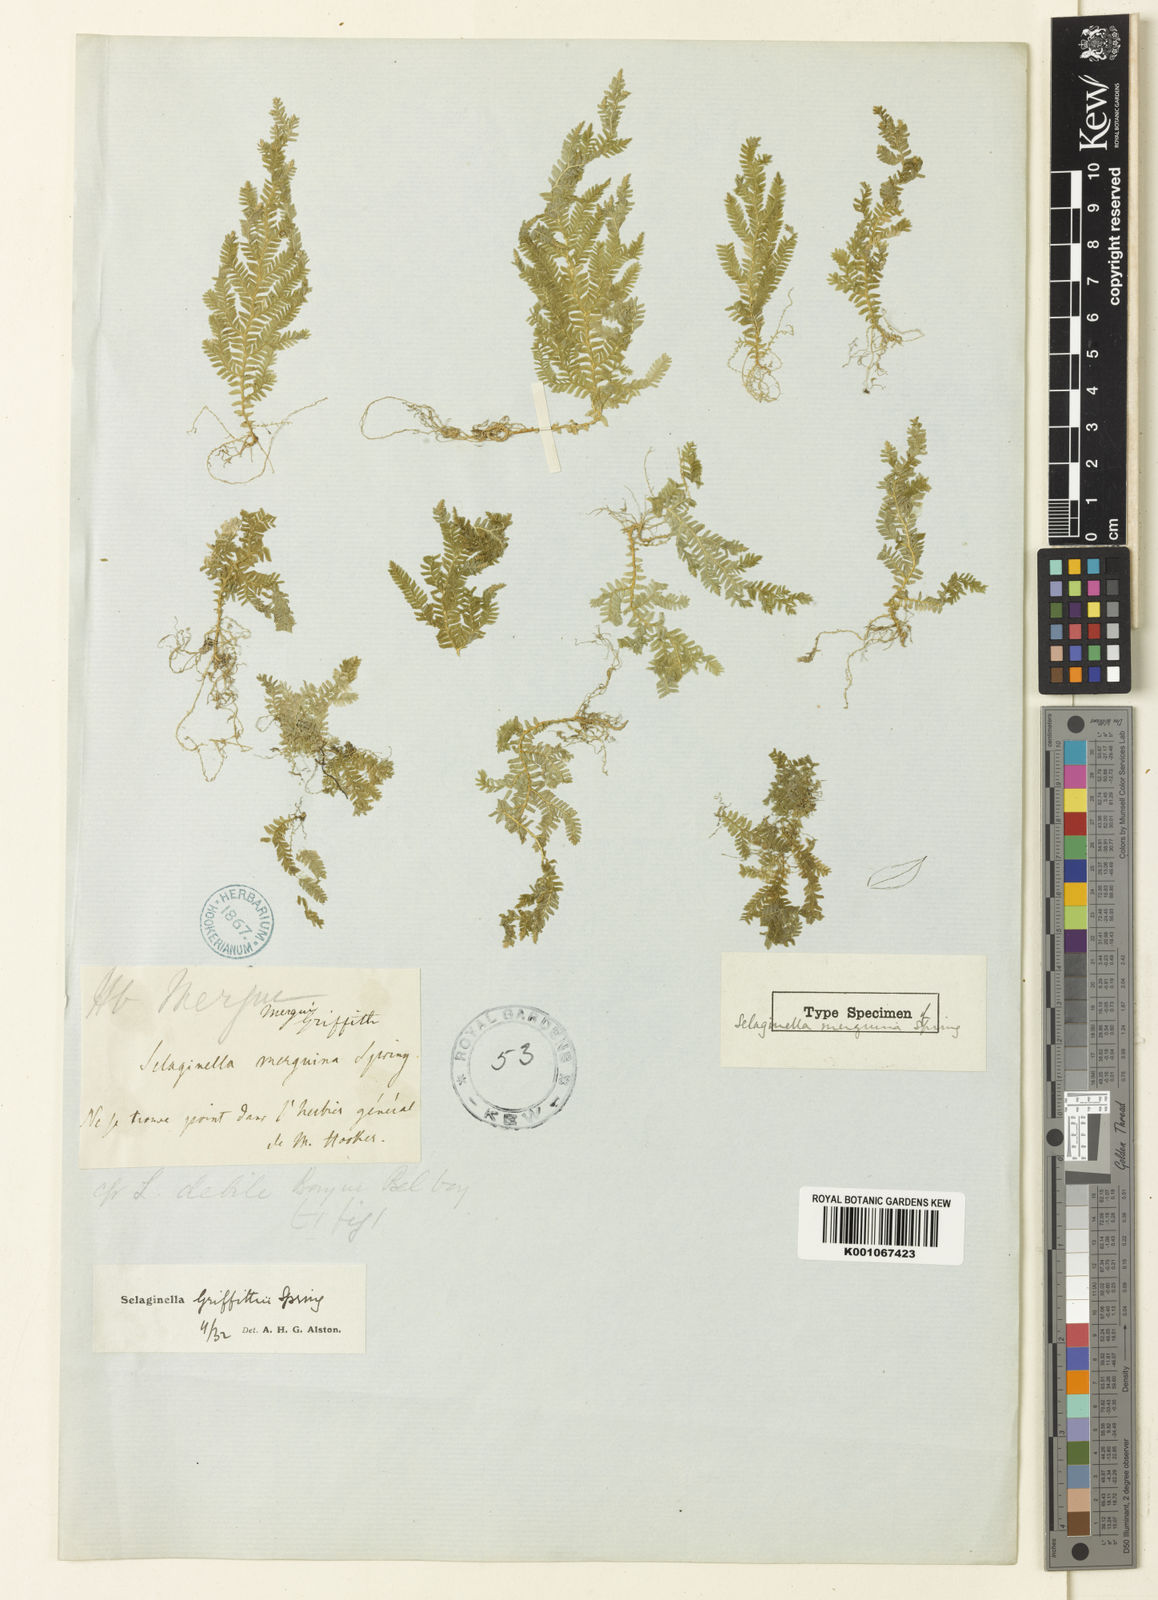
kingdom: Plantae
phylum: Tracheophyta
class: Lycopodiopsida
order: Selaginellales
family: Selaginellaceae
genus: Selaginella
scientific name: Selaginella
